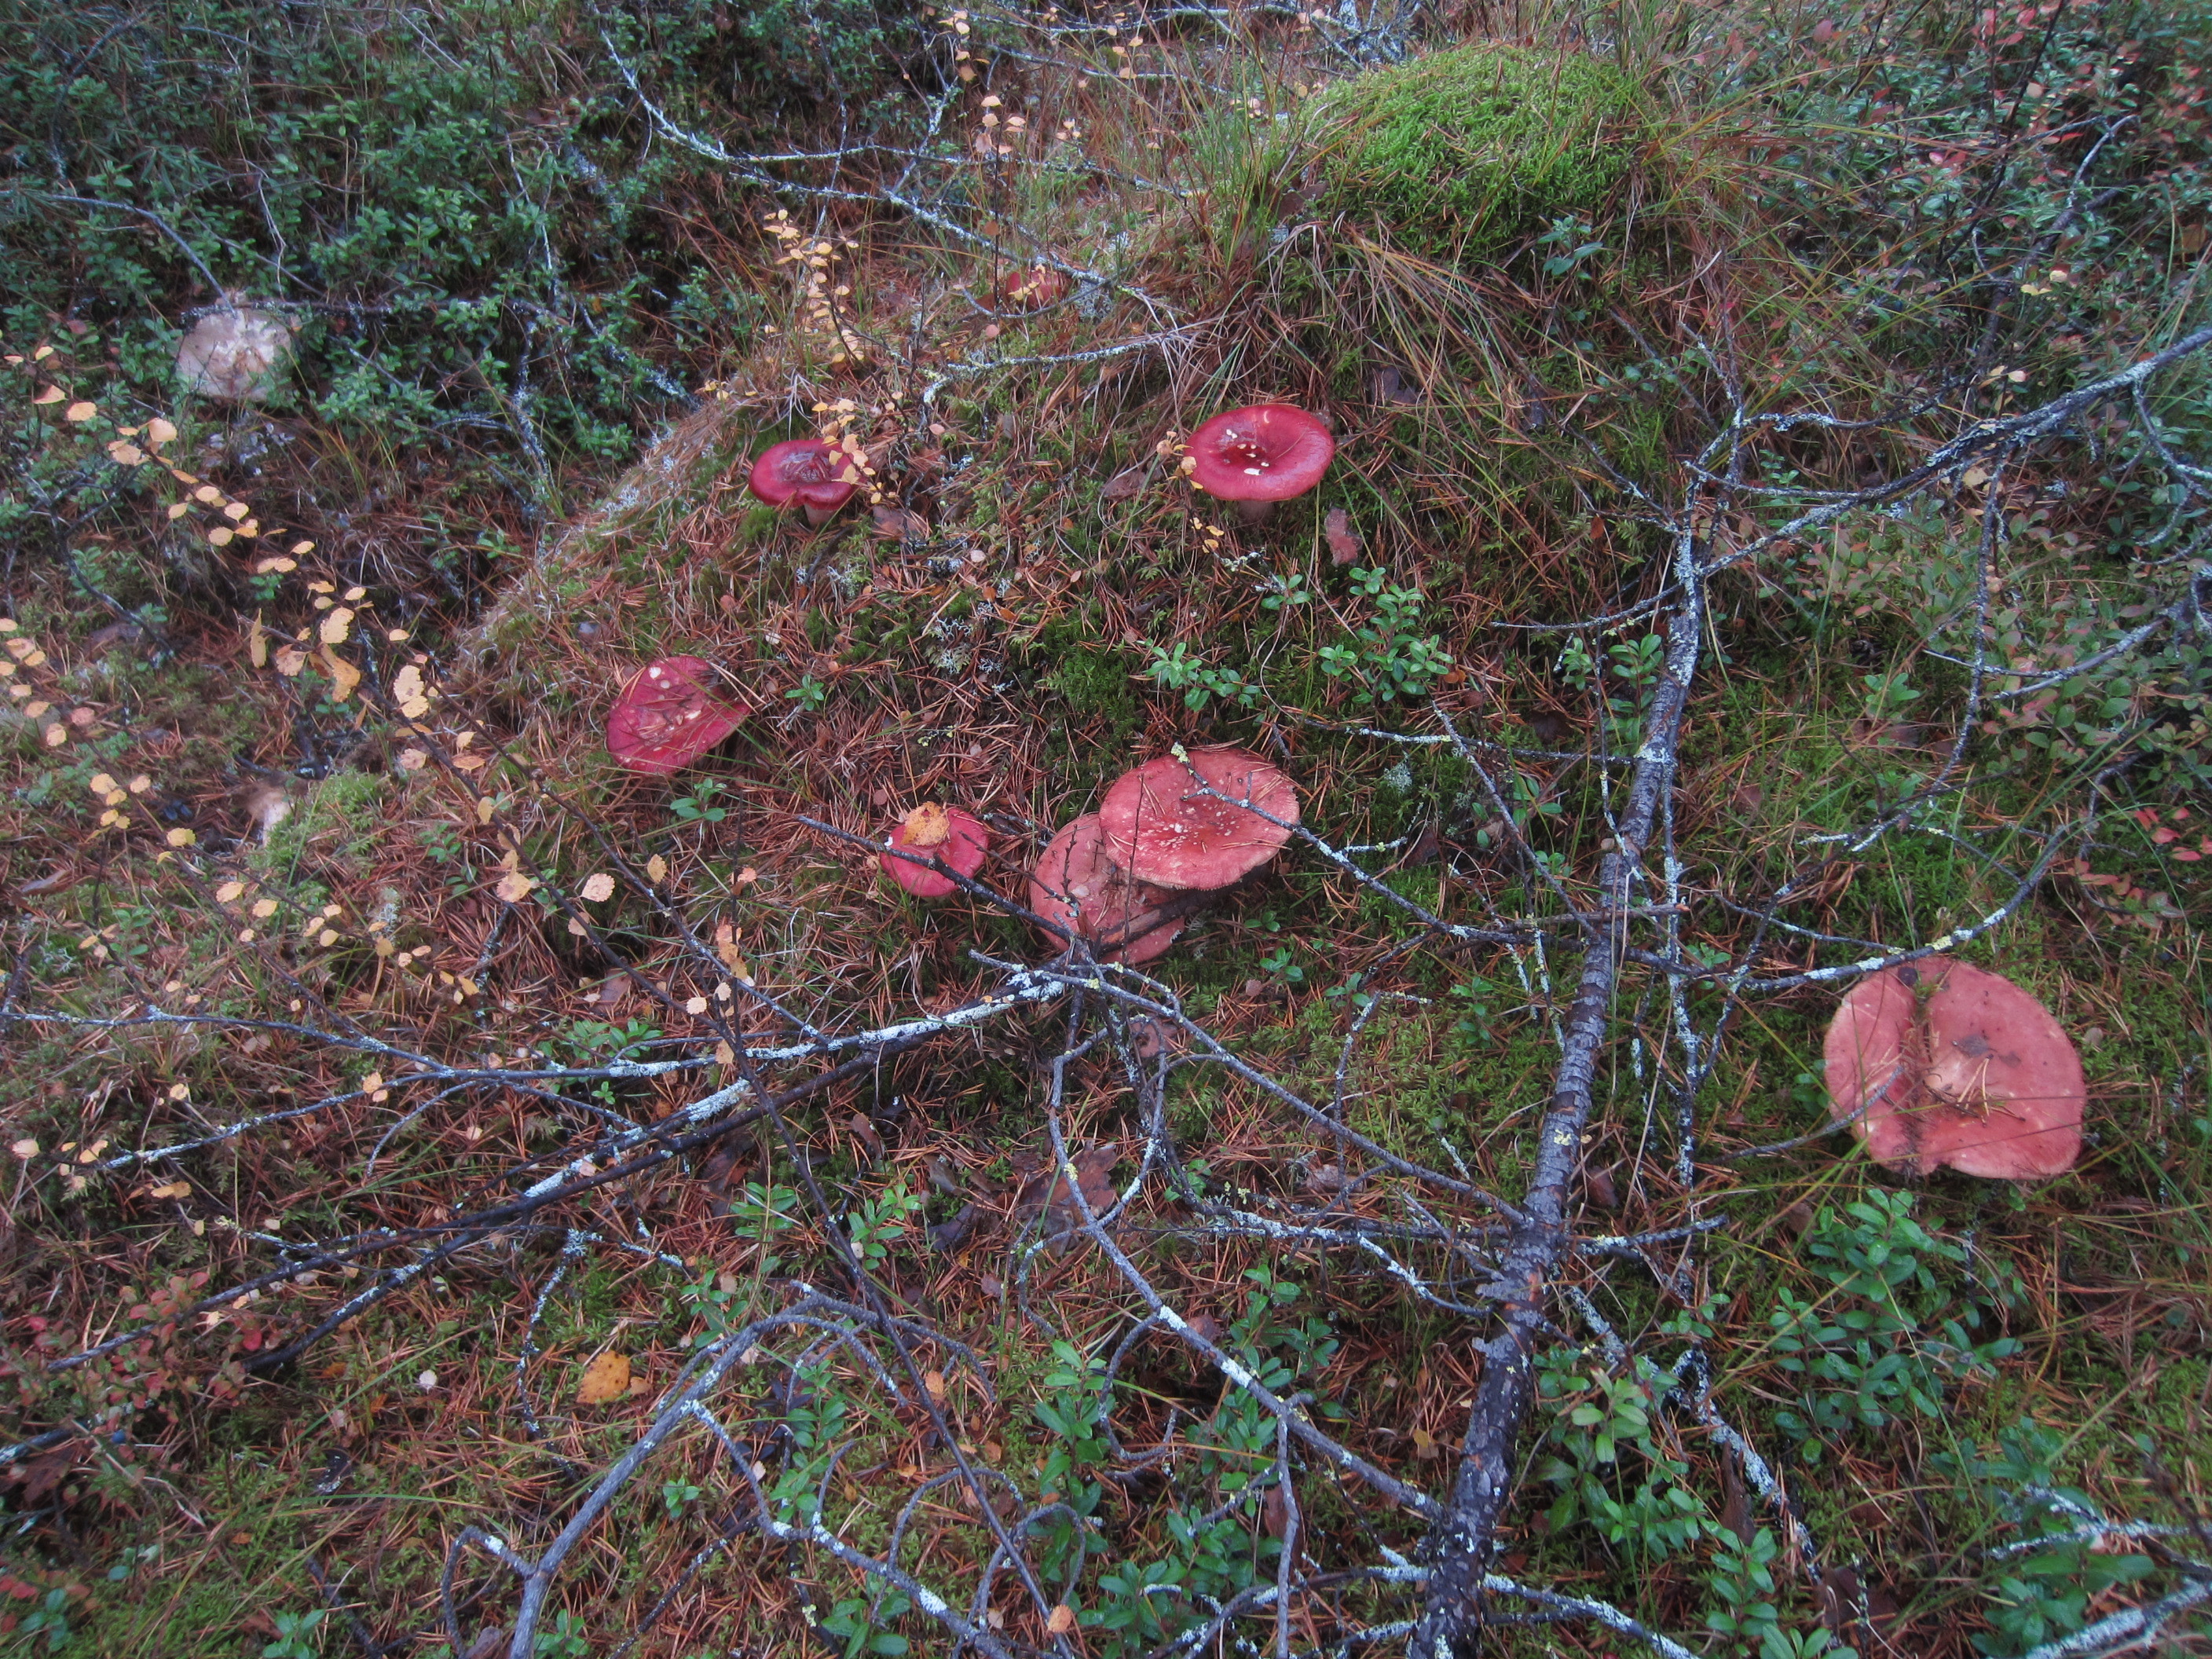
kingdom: Fungi
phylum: Basidiomycota
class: Agaricomycetes
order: Russulales
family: Russulaceae
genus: Russula
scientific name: Russula paludosa
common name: Hintapink
